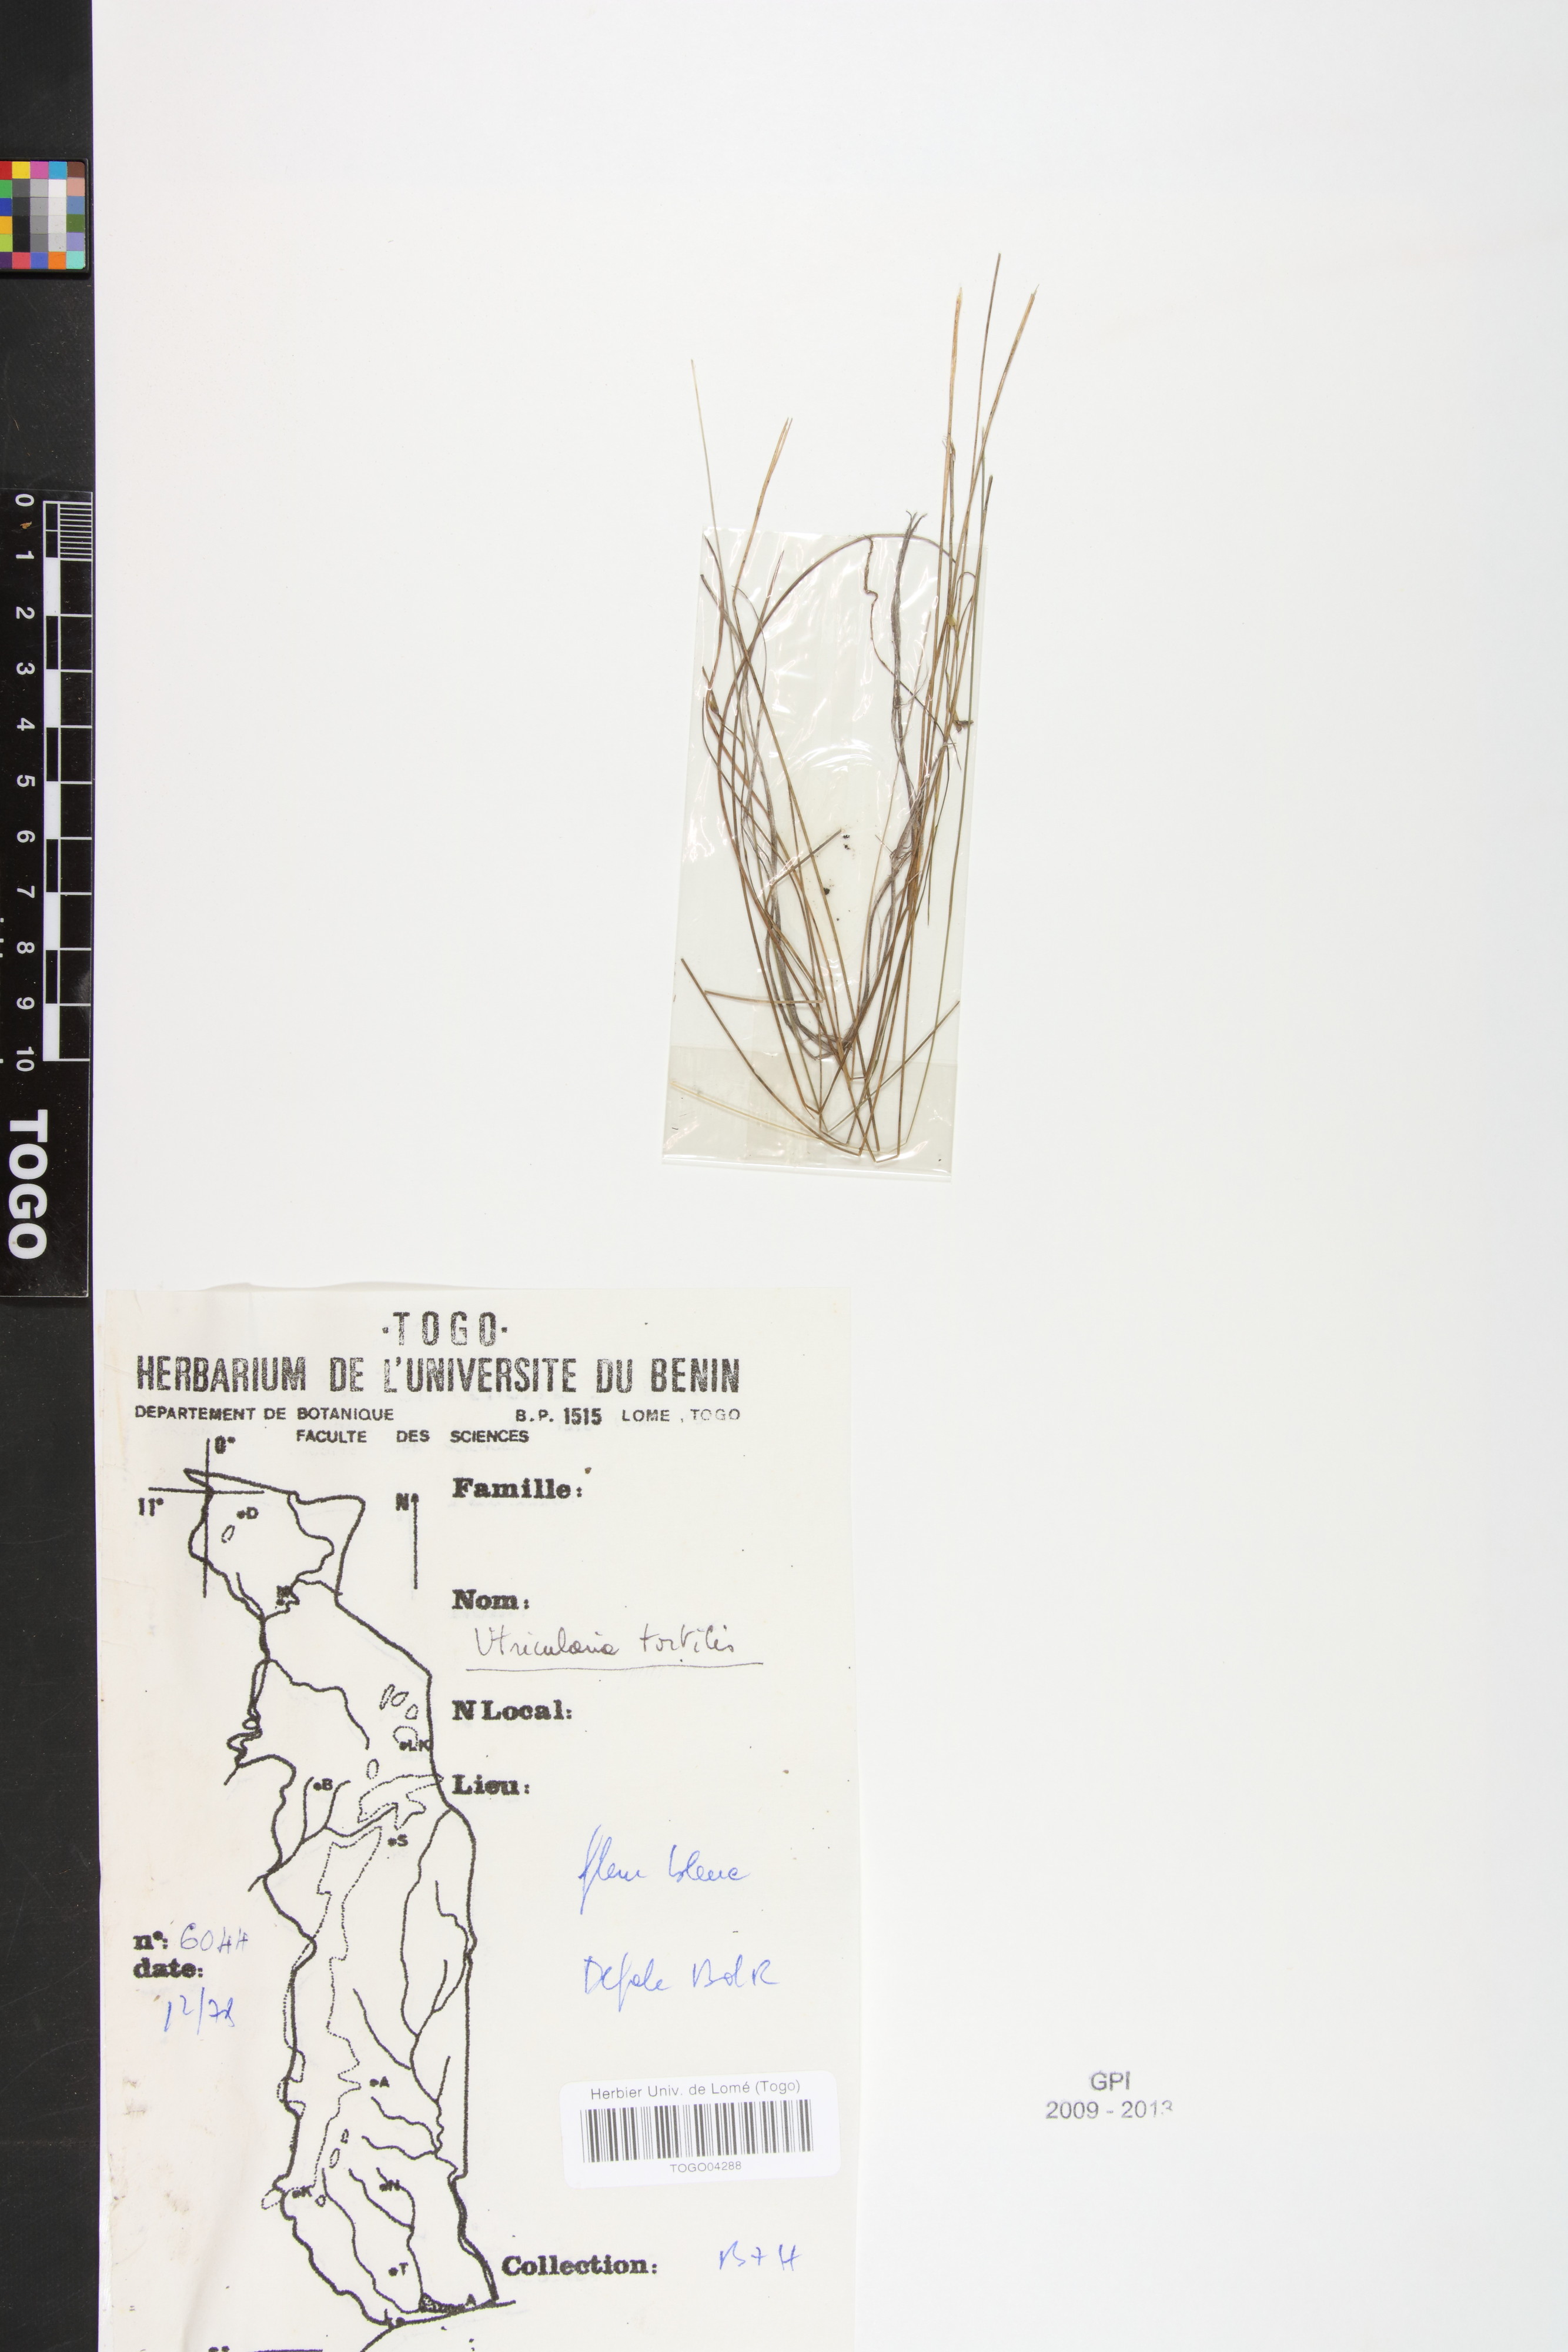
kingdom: Plantae
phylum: Tracheophyta
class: Magnoliopsida
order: Lamiales
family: Lentibulariaceae
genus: Utricularia
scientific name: Utricularia tortilis
